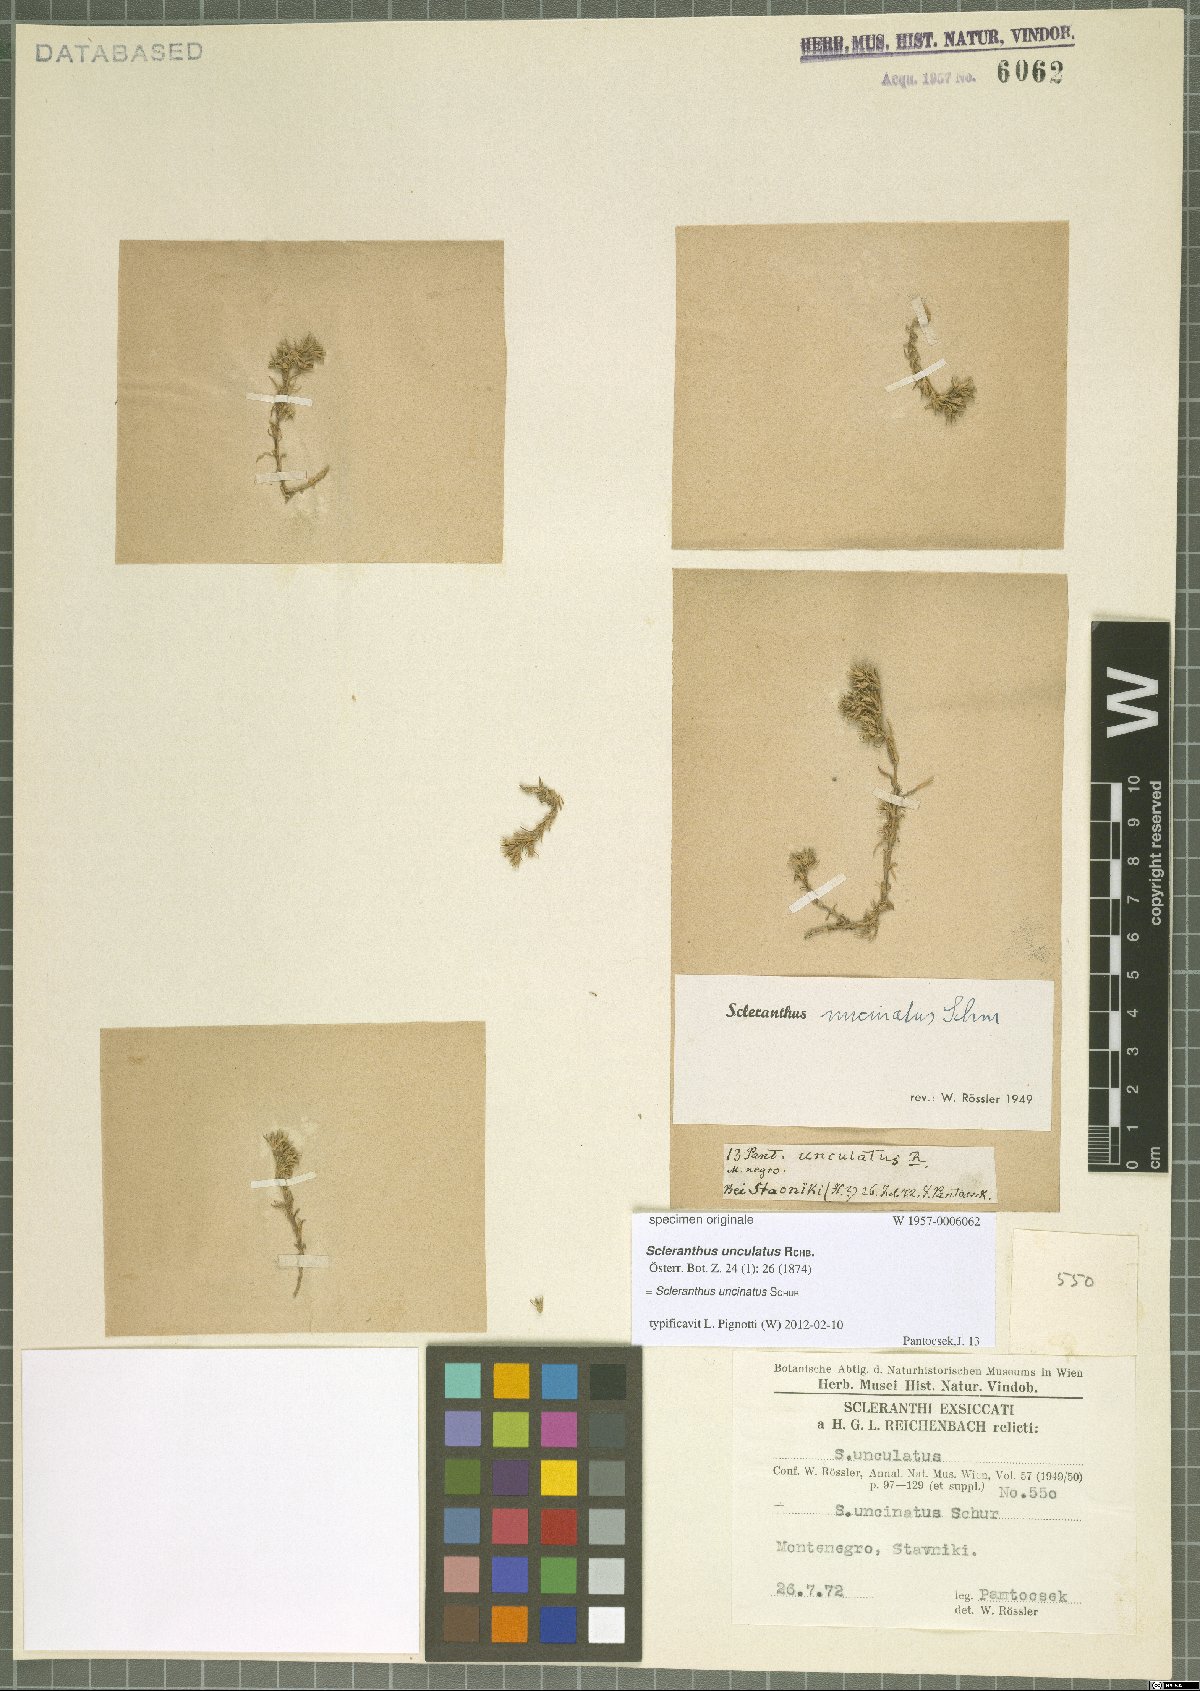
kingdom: Plantae
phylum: Tracheophyta
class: Magnoliopsida
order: Caryophyllales
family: Caryophyllaceae
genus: Scleranthus
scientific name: Scleranthus uncinatus
